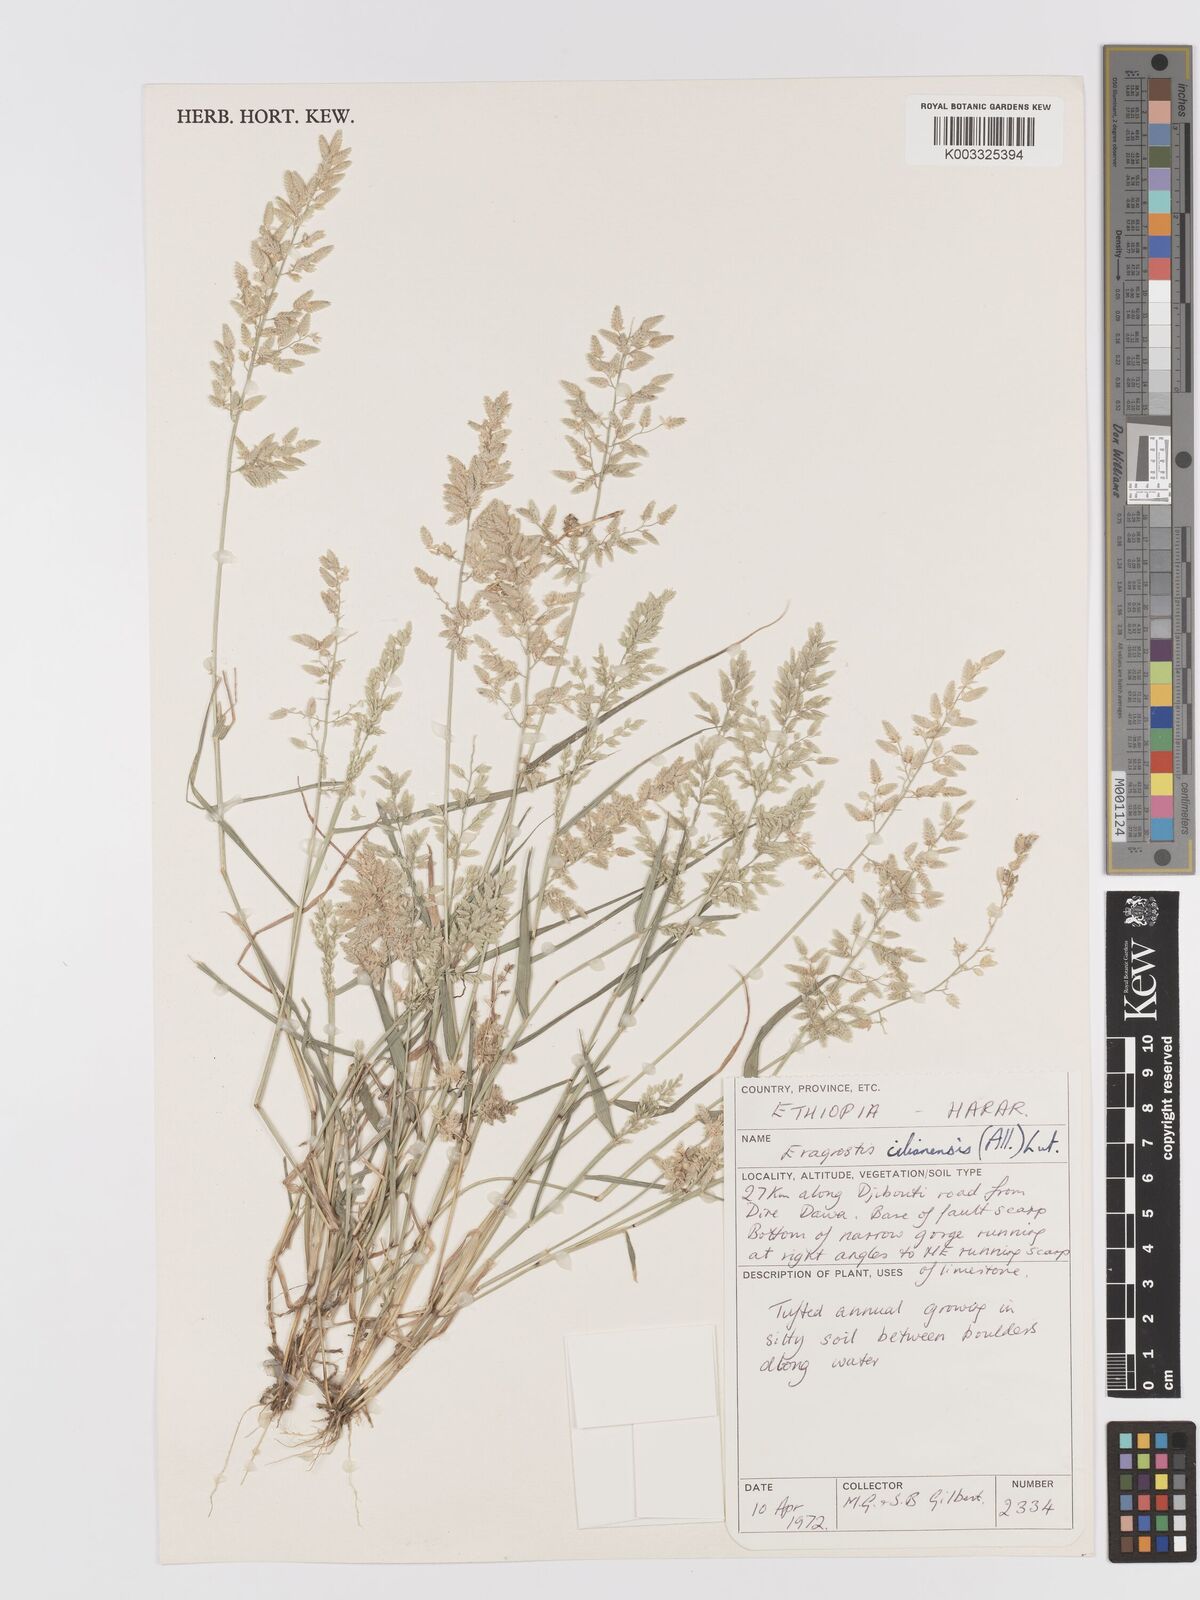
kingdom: Plantae
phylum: Tracheophyta
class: Liliopsida
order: Poales
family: Poaceae
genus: Eragrostis
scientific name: Eragrostis cilianensis
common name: Stinkgrass
